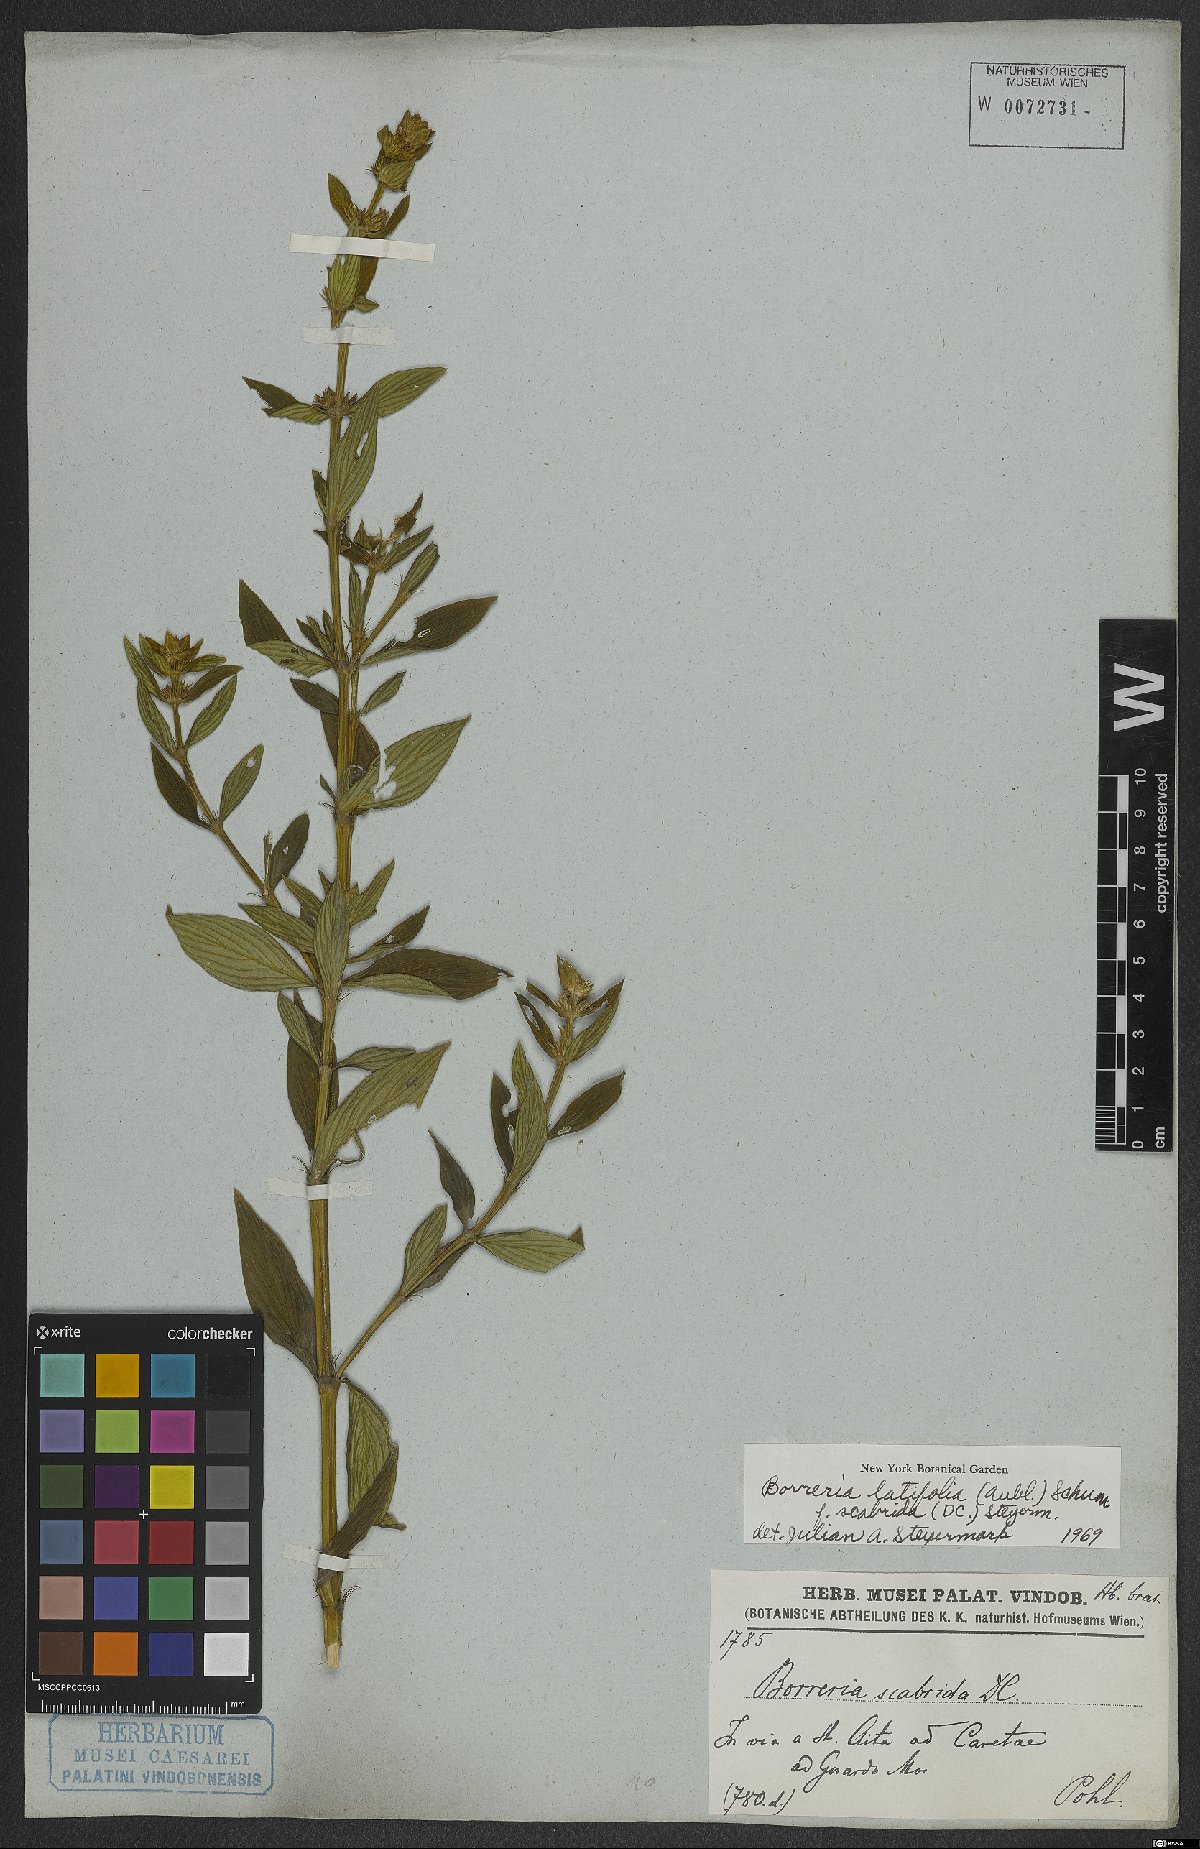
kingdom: Plantae
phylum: Tracheophyta
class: Magnoliopsida
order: Gentianales
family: Rubiaceae
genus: Spermacoce
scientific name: Spermacoce latifolia
